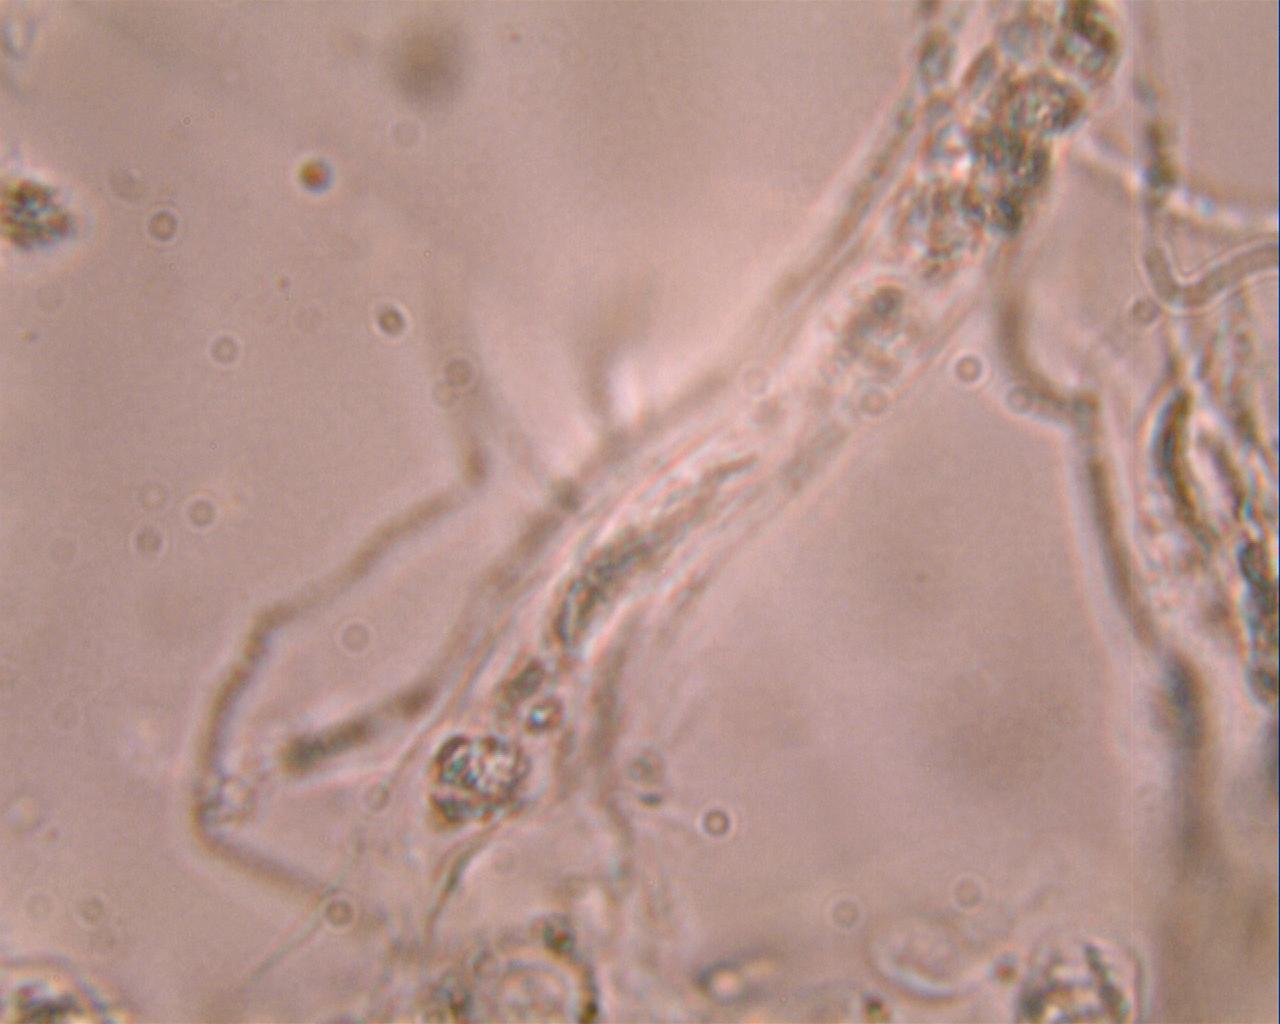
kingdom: Fungi
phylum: Basidiomycota
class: Agaricomycetes
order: Corticiales
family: Vuilleminiaceae
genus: Vuilleminia
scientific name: Vuilleminia coryli
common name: hassel-barksprænger
